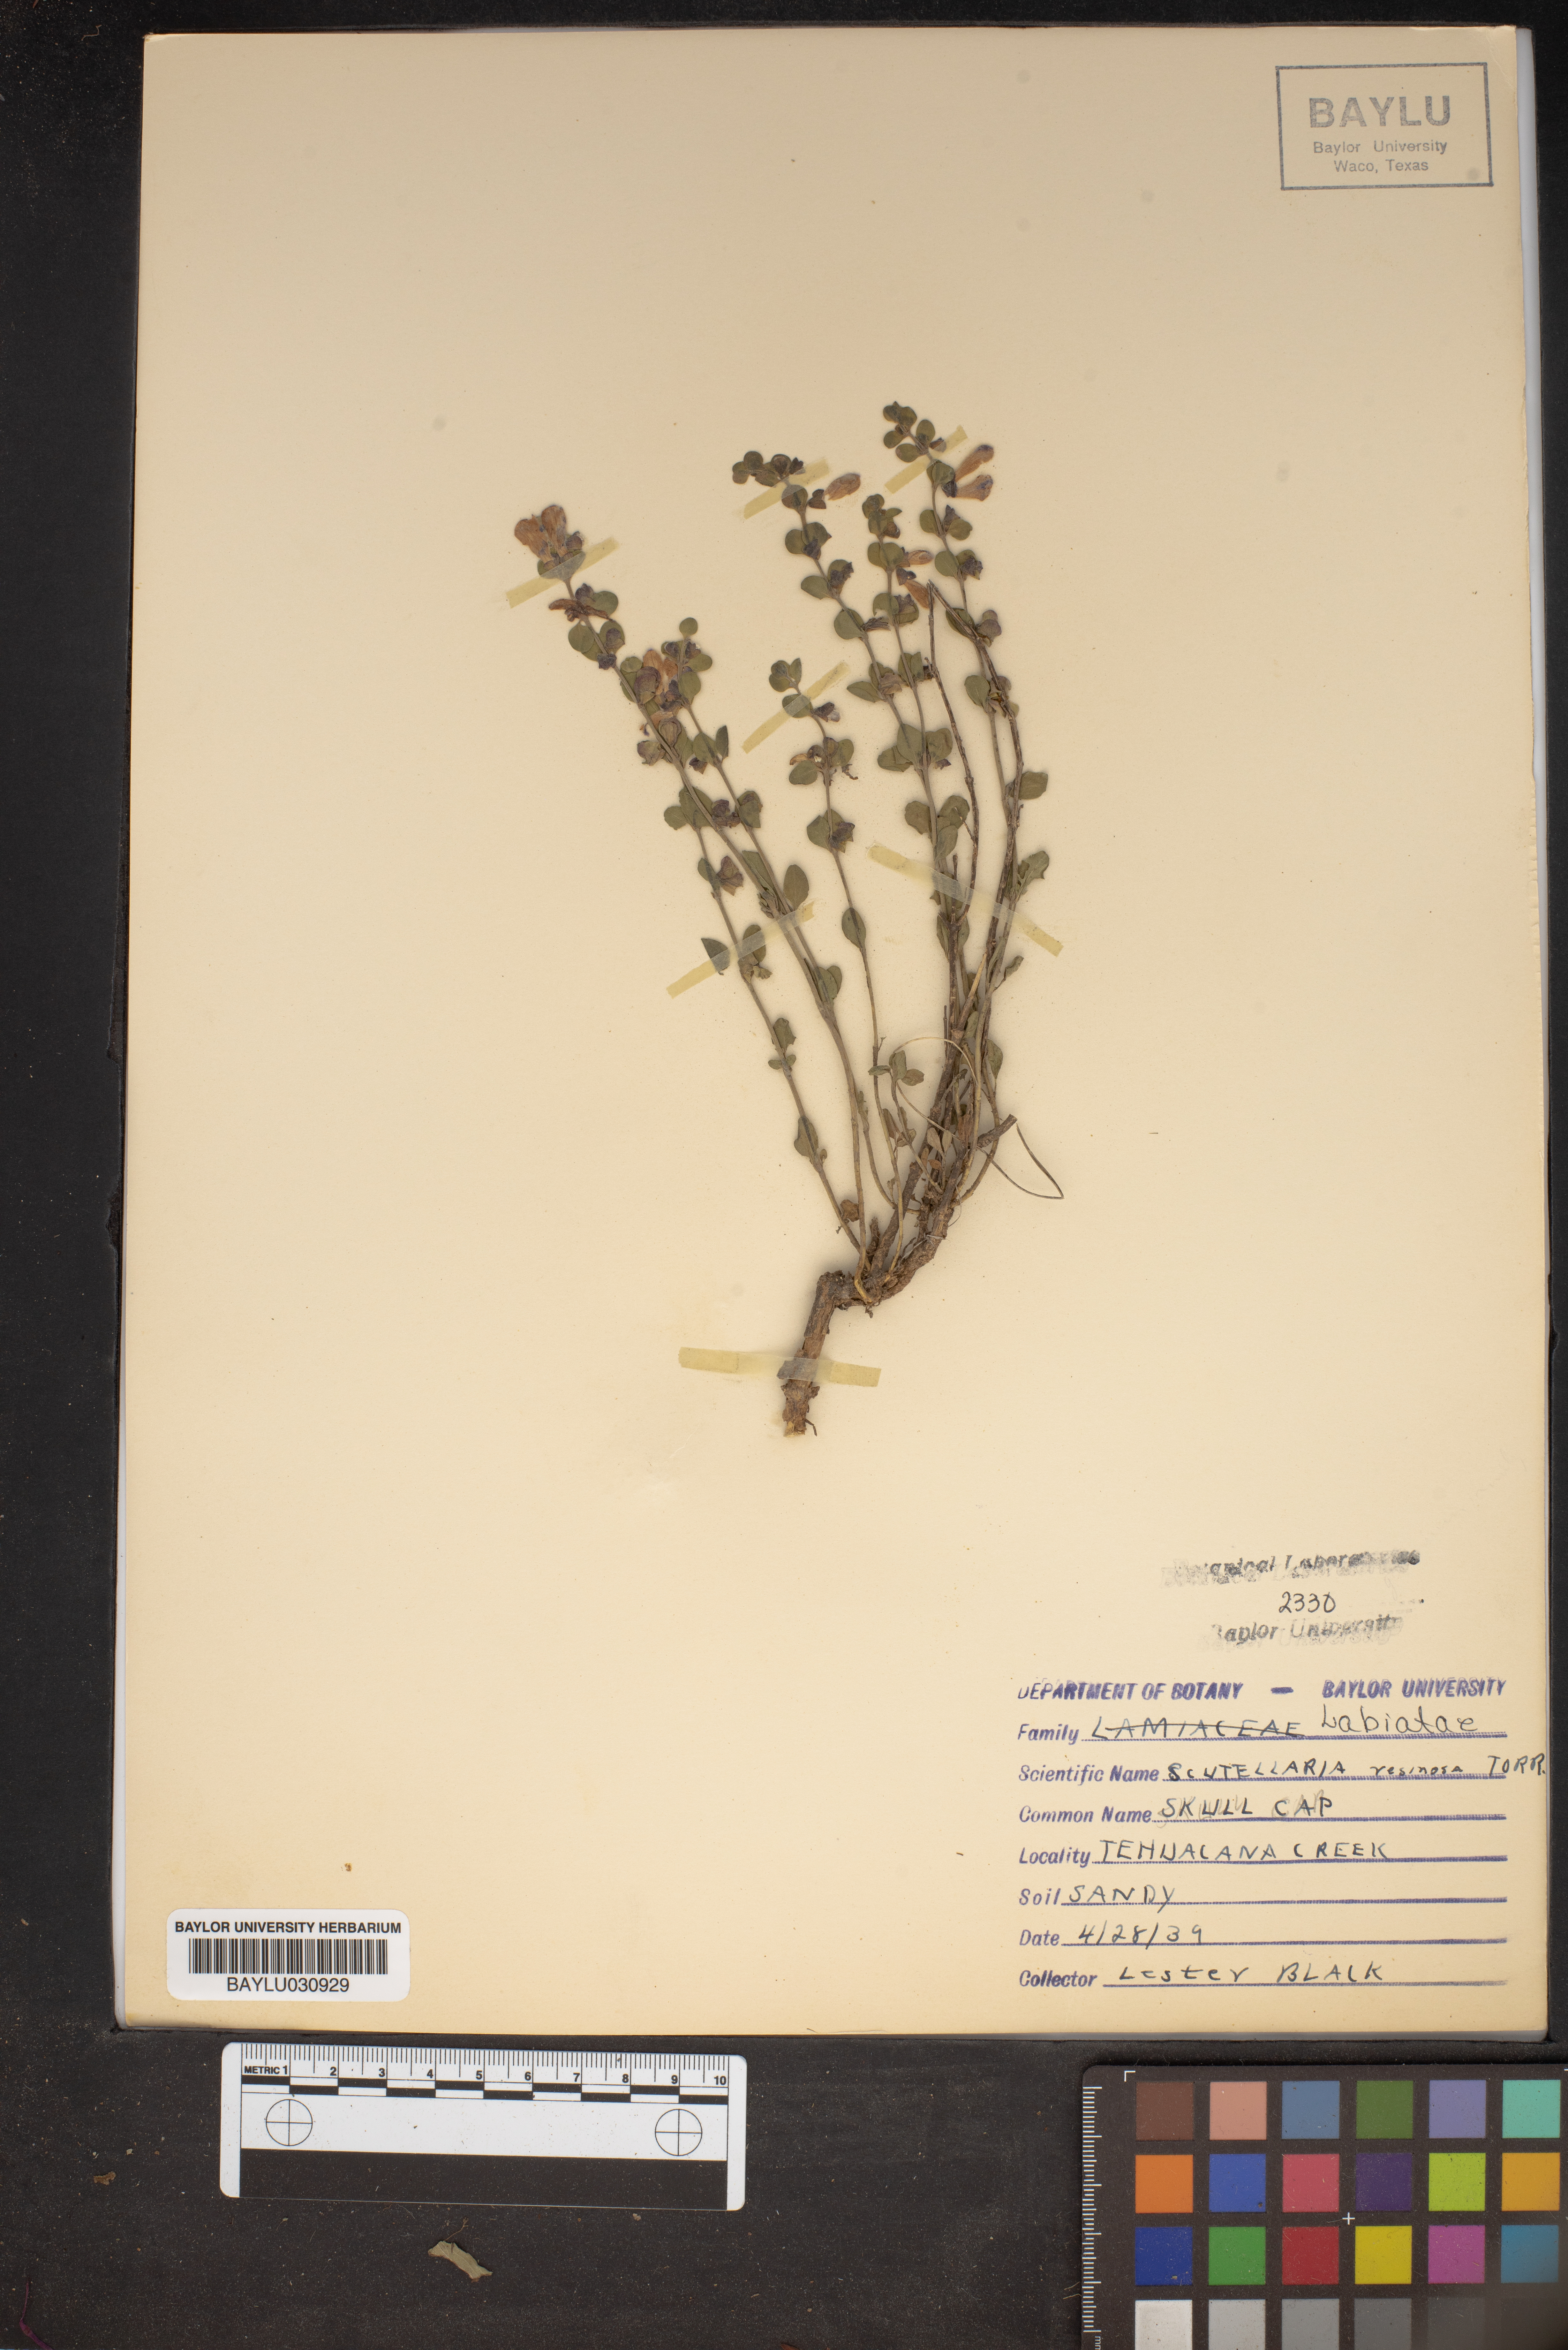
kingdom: Plantae
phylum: Tracheophyta
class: Magnoliopsida
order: Lamiales
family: Lamiaceae
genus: Scutellaria
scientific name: Scutellaria resinosa
